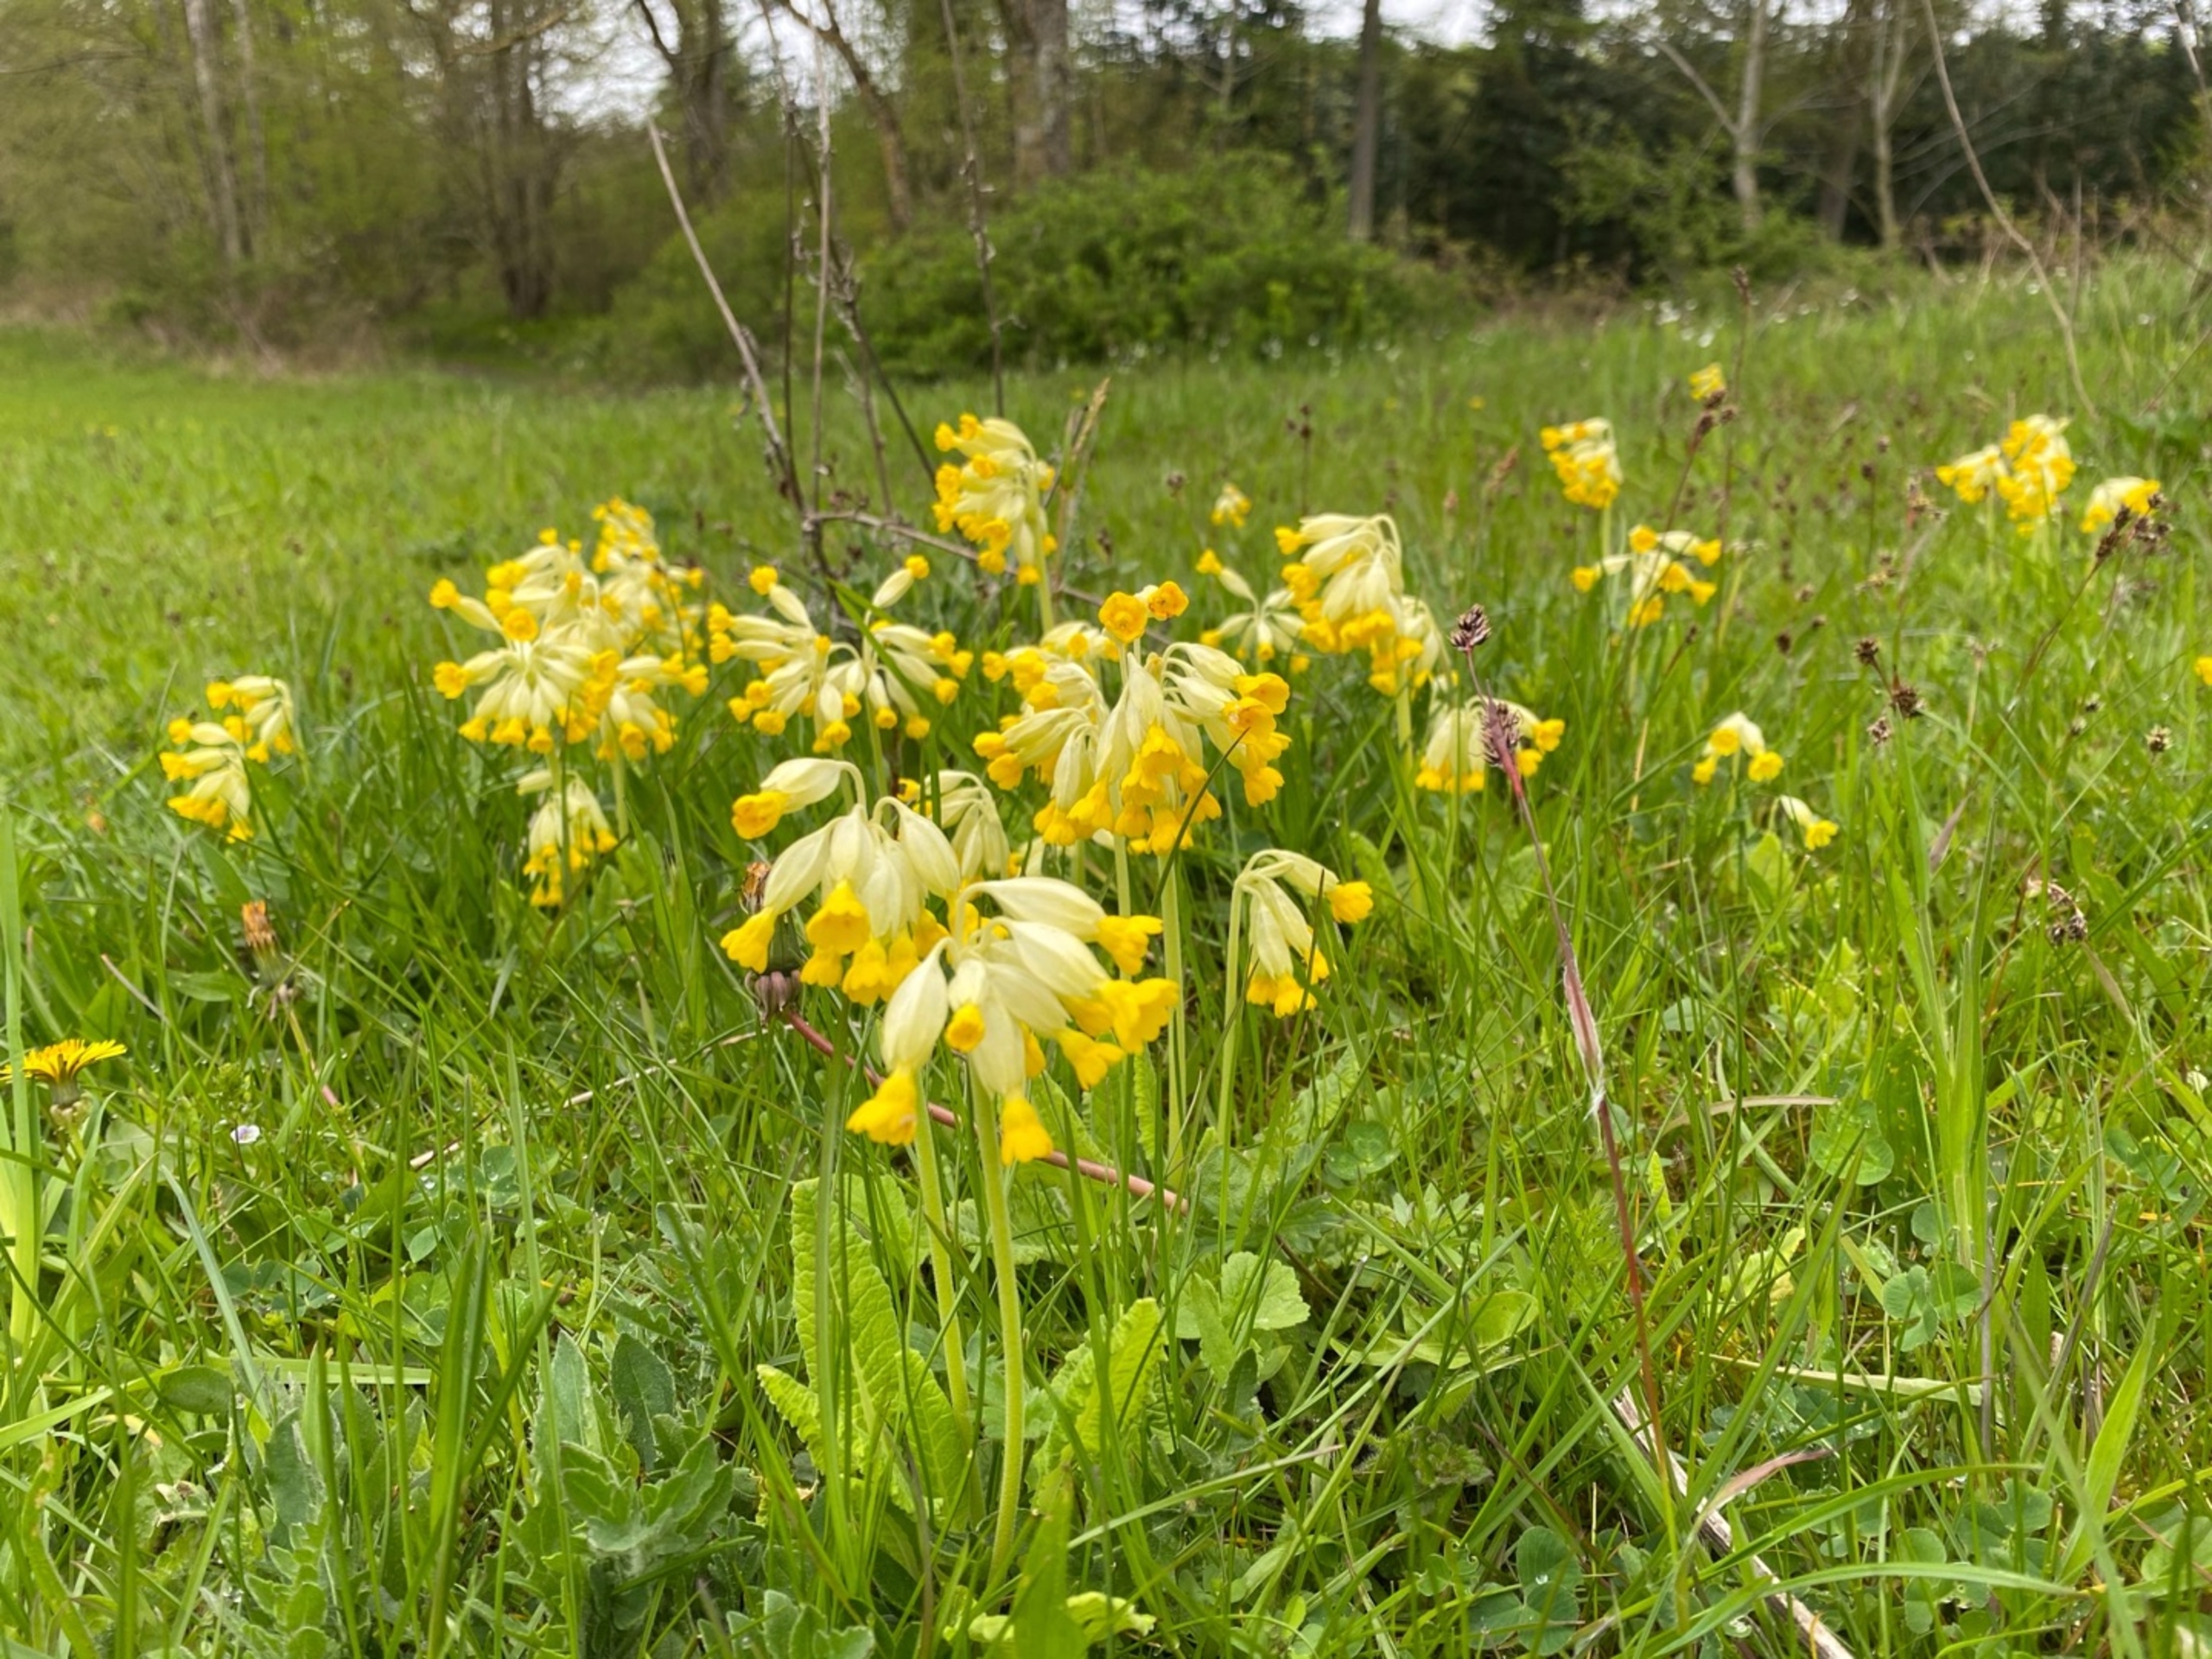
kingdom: Plantae
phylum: Tracheophyta
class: Magnoliopsida
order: Ericales
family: Primulaceae
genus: Primula
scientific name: Primula veris
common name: Hulkravet kodriver
